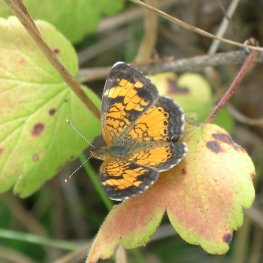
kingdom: Animalia
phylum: Arthropoda
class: Insecta
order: Lepidoptera
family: Nymphalidae
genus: Phyciodes
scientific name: Phyciodes tharos
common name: Northern Crescent
